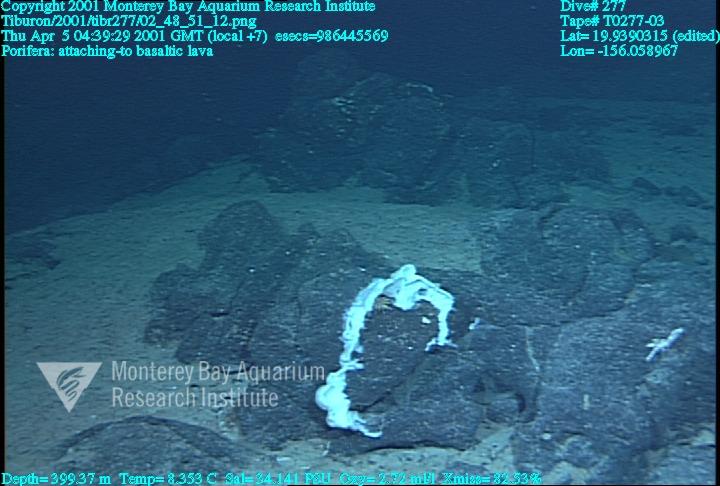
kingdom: Animalia
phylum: Porifera
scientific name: Porifera
